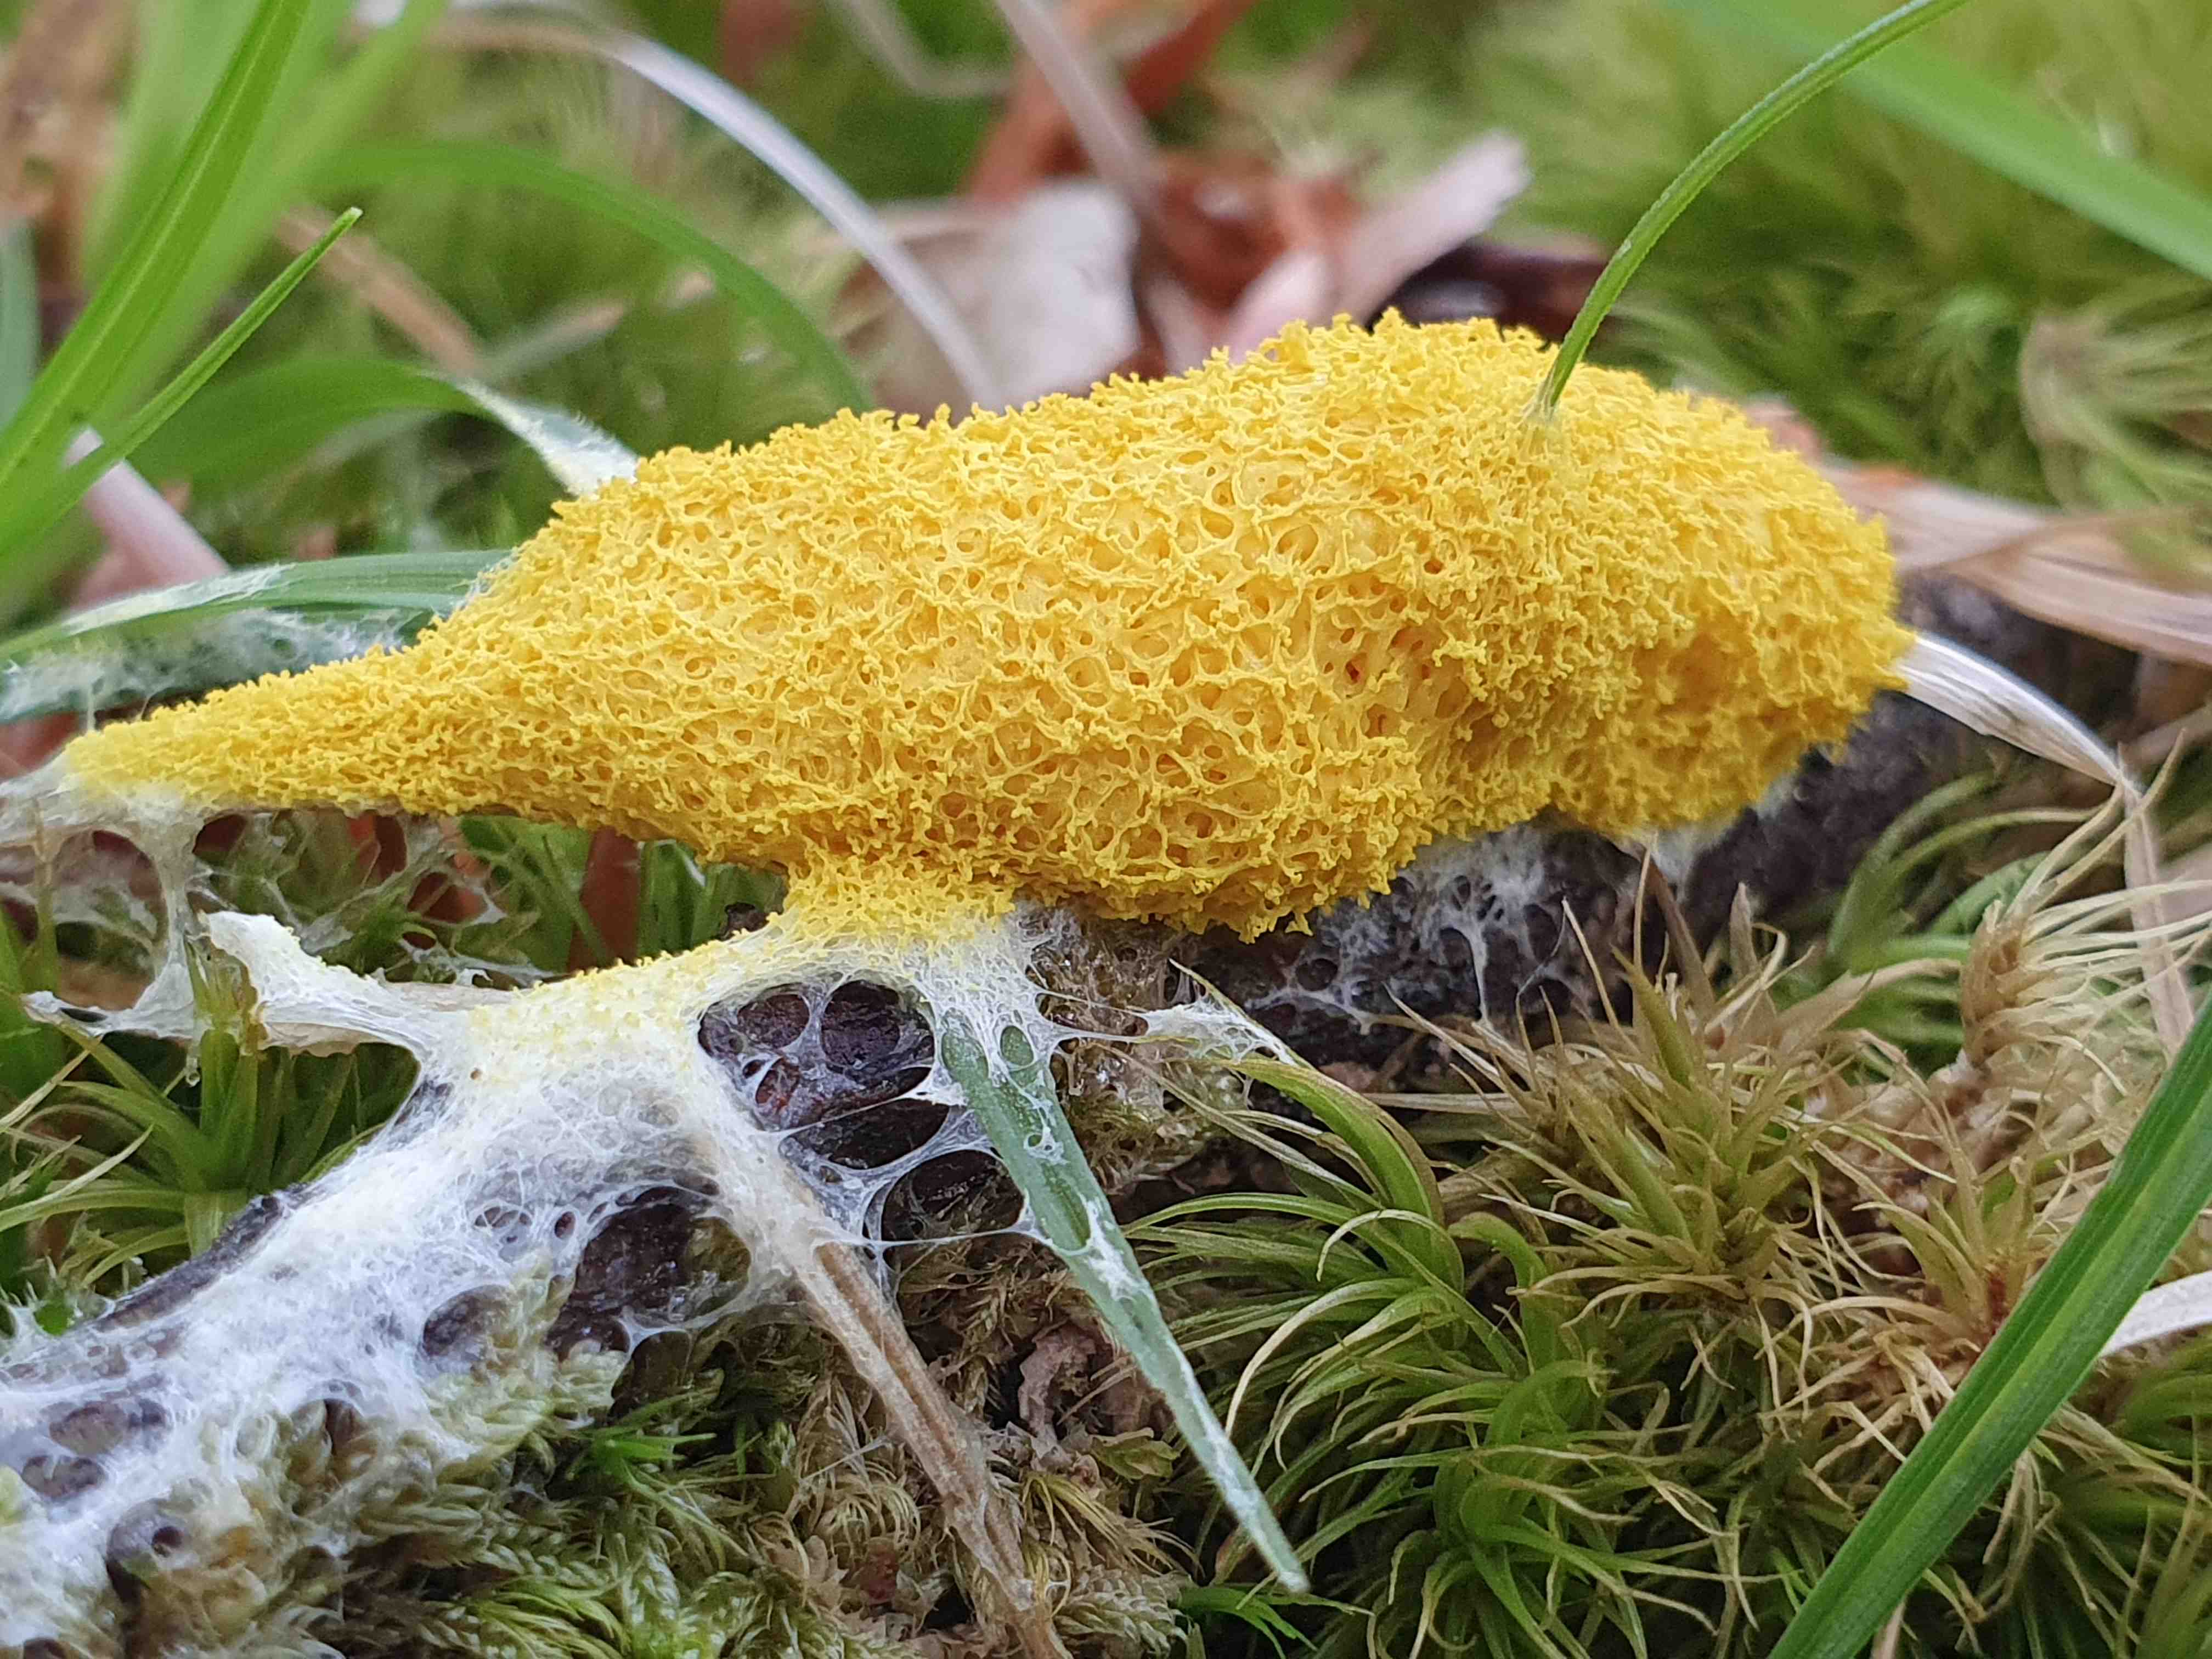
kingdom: Protozoa
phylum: Mycetozoa
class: Myxomycetes
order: Physarales
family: Physaraceae
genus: Fuligo
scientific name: Fuligo septica
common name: gul troldsmør
